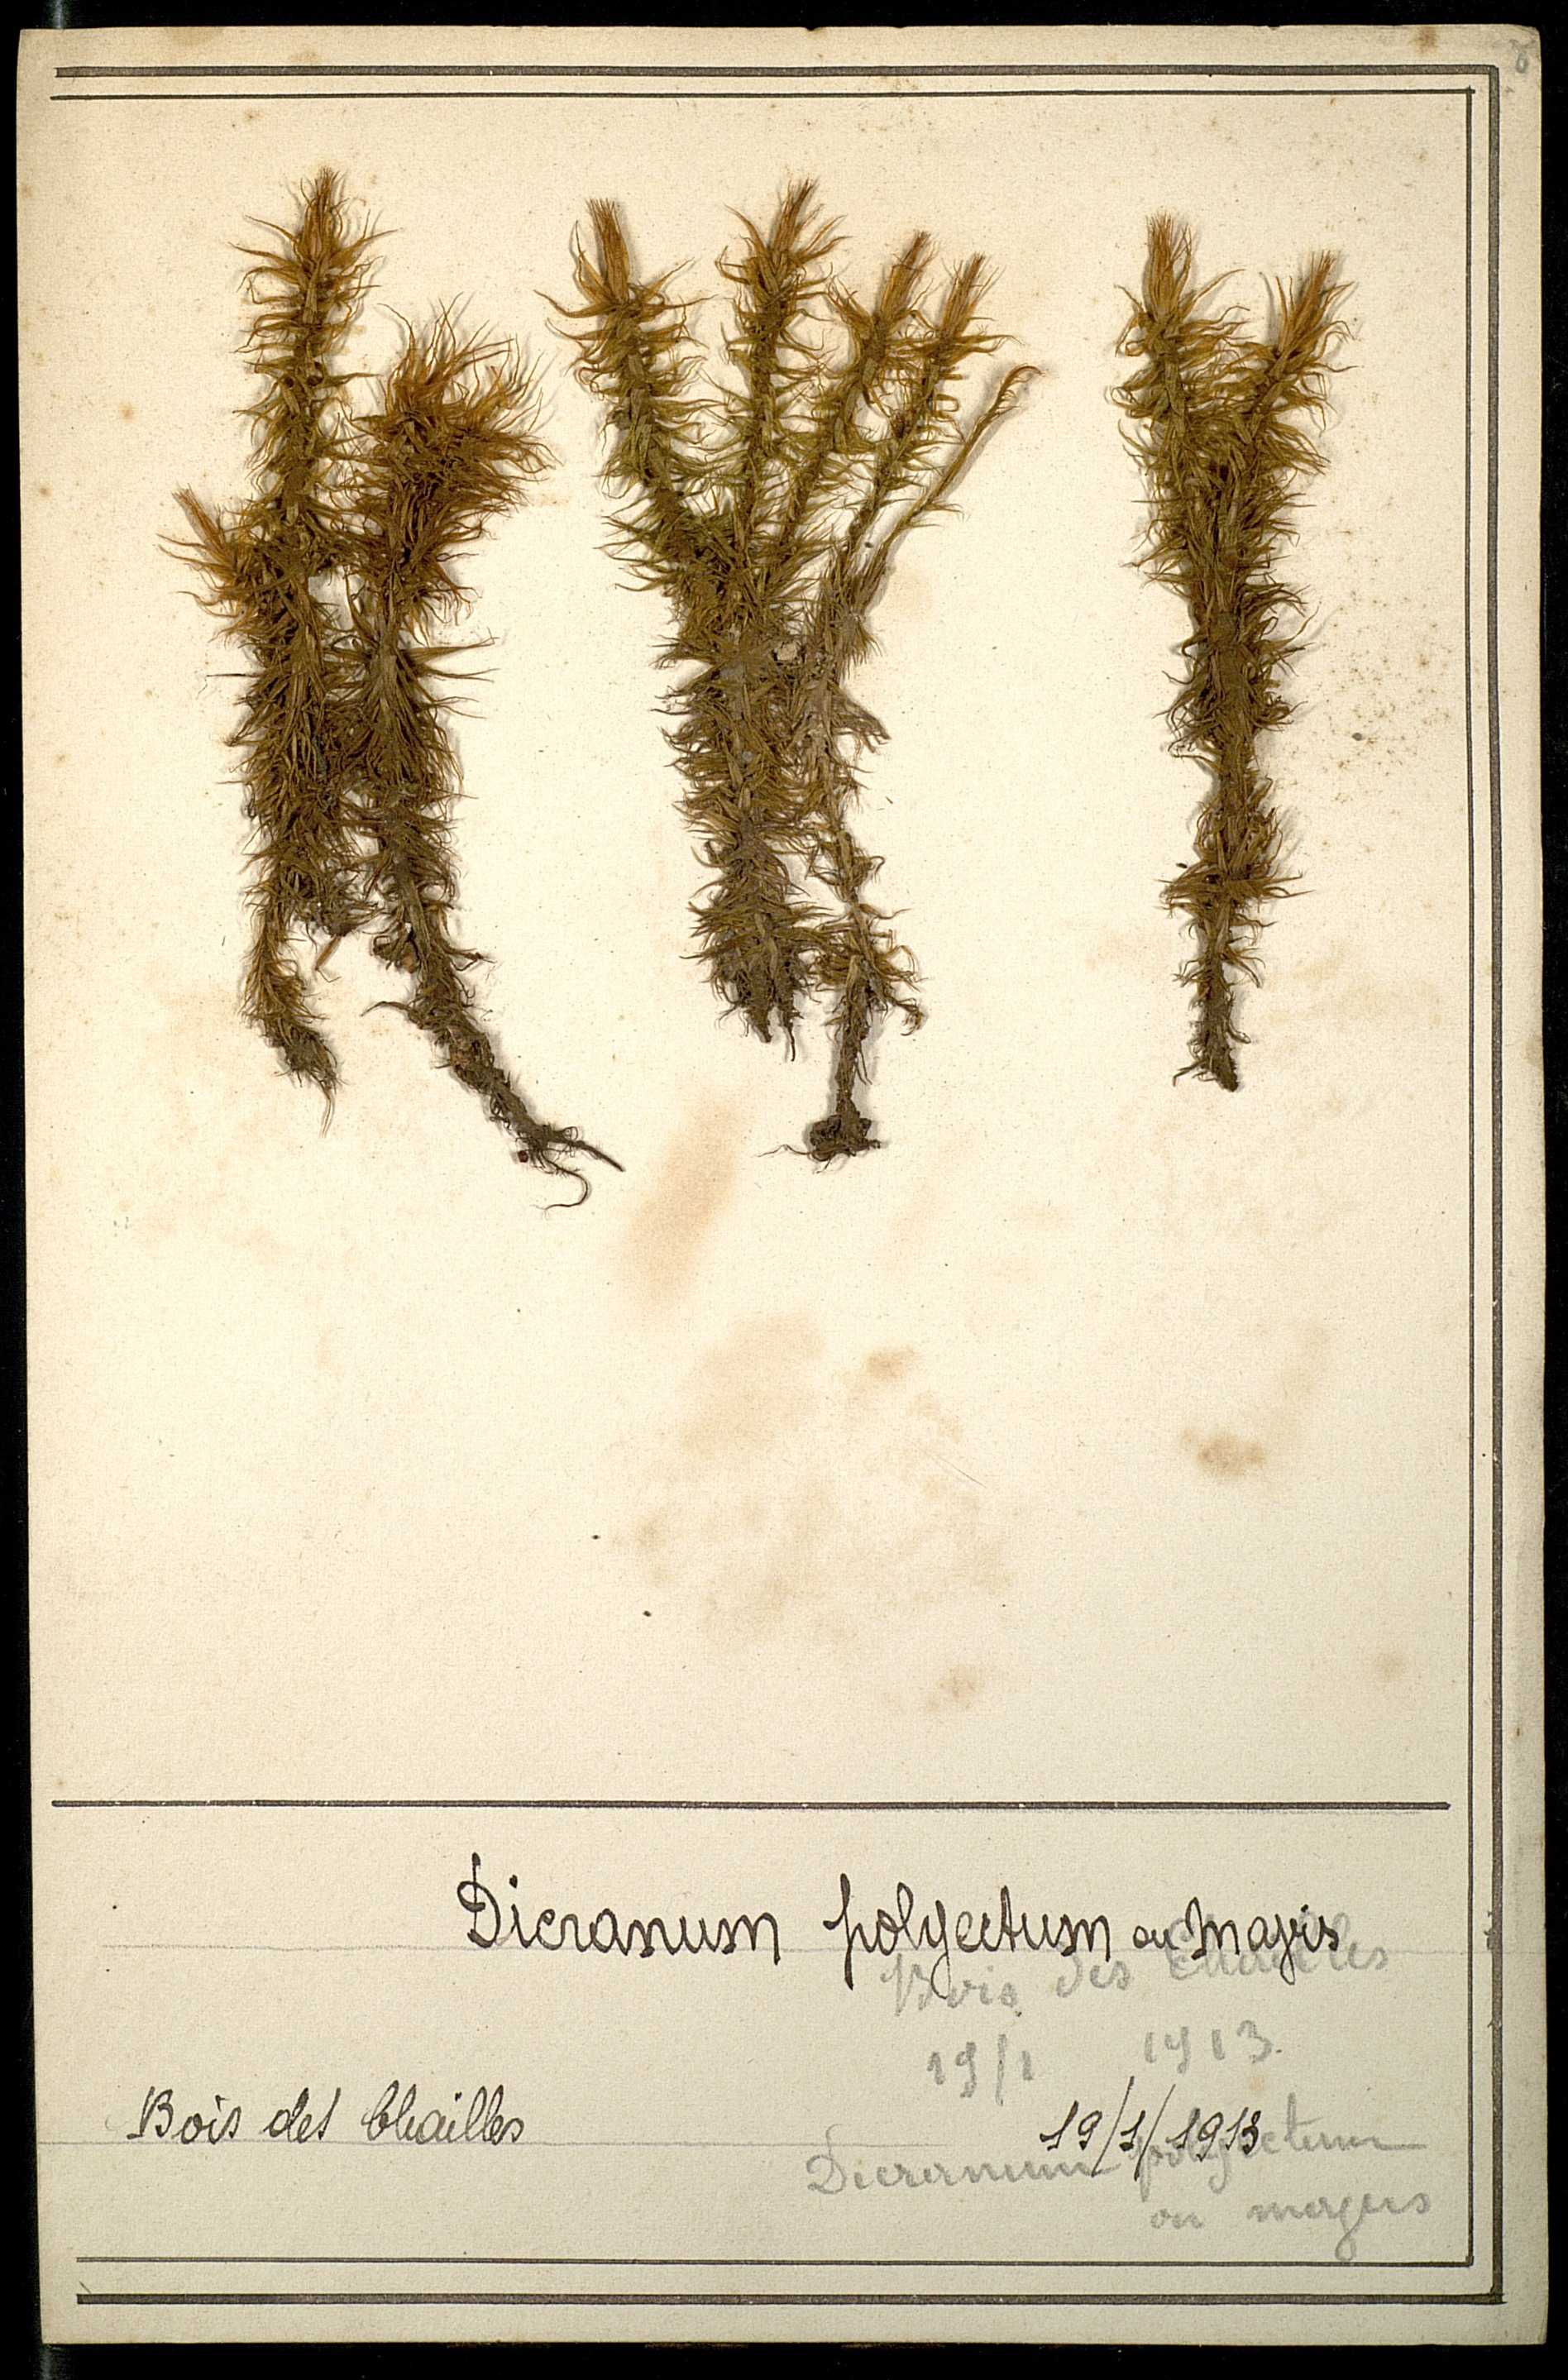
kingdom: Plantae
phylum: Bryophyta
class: Bryopsida
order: Dicranales
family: Dicranaceae
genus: Dicranum
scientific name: Dicranum polysetum
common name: Rugose fork-moss
